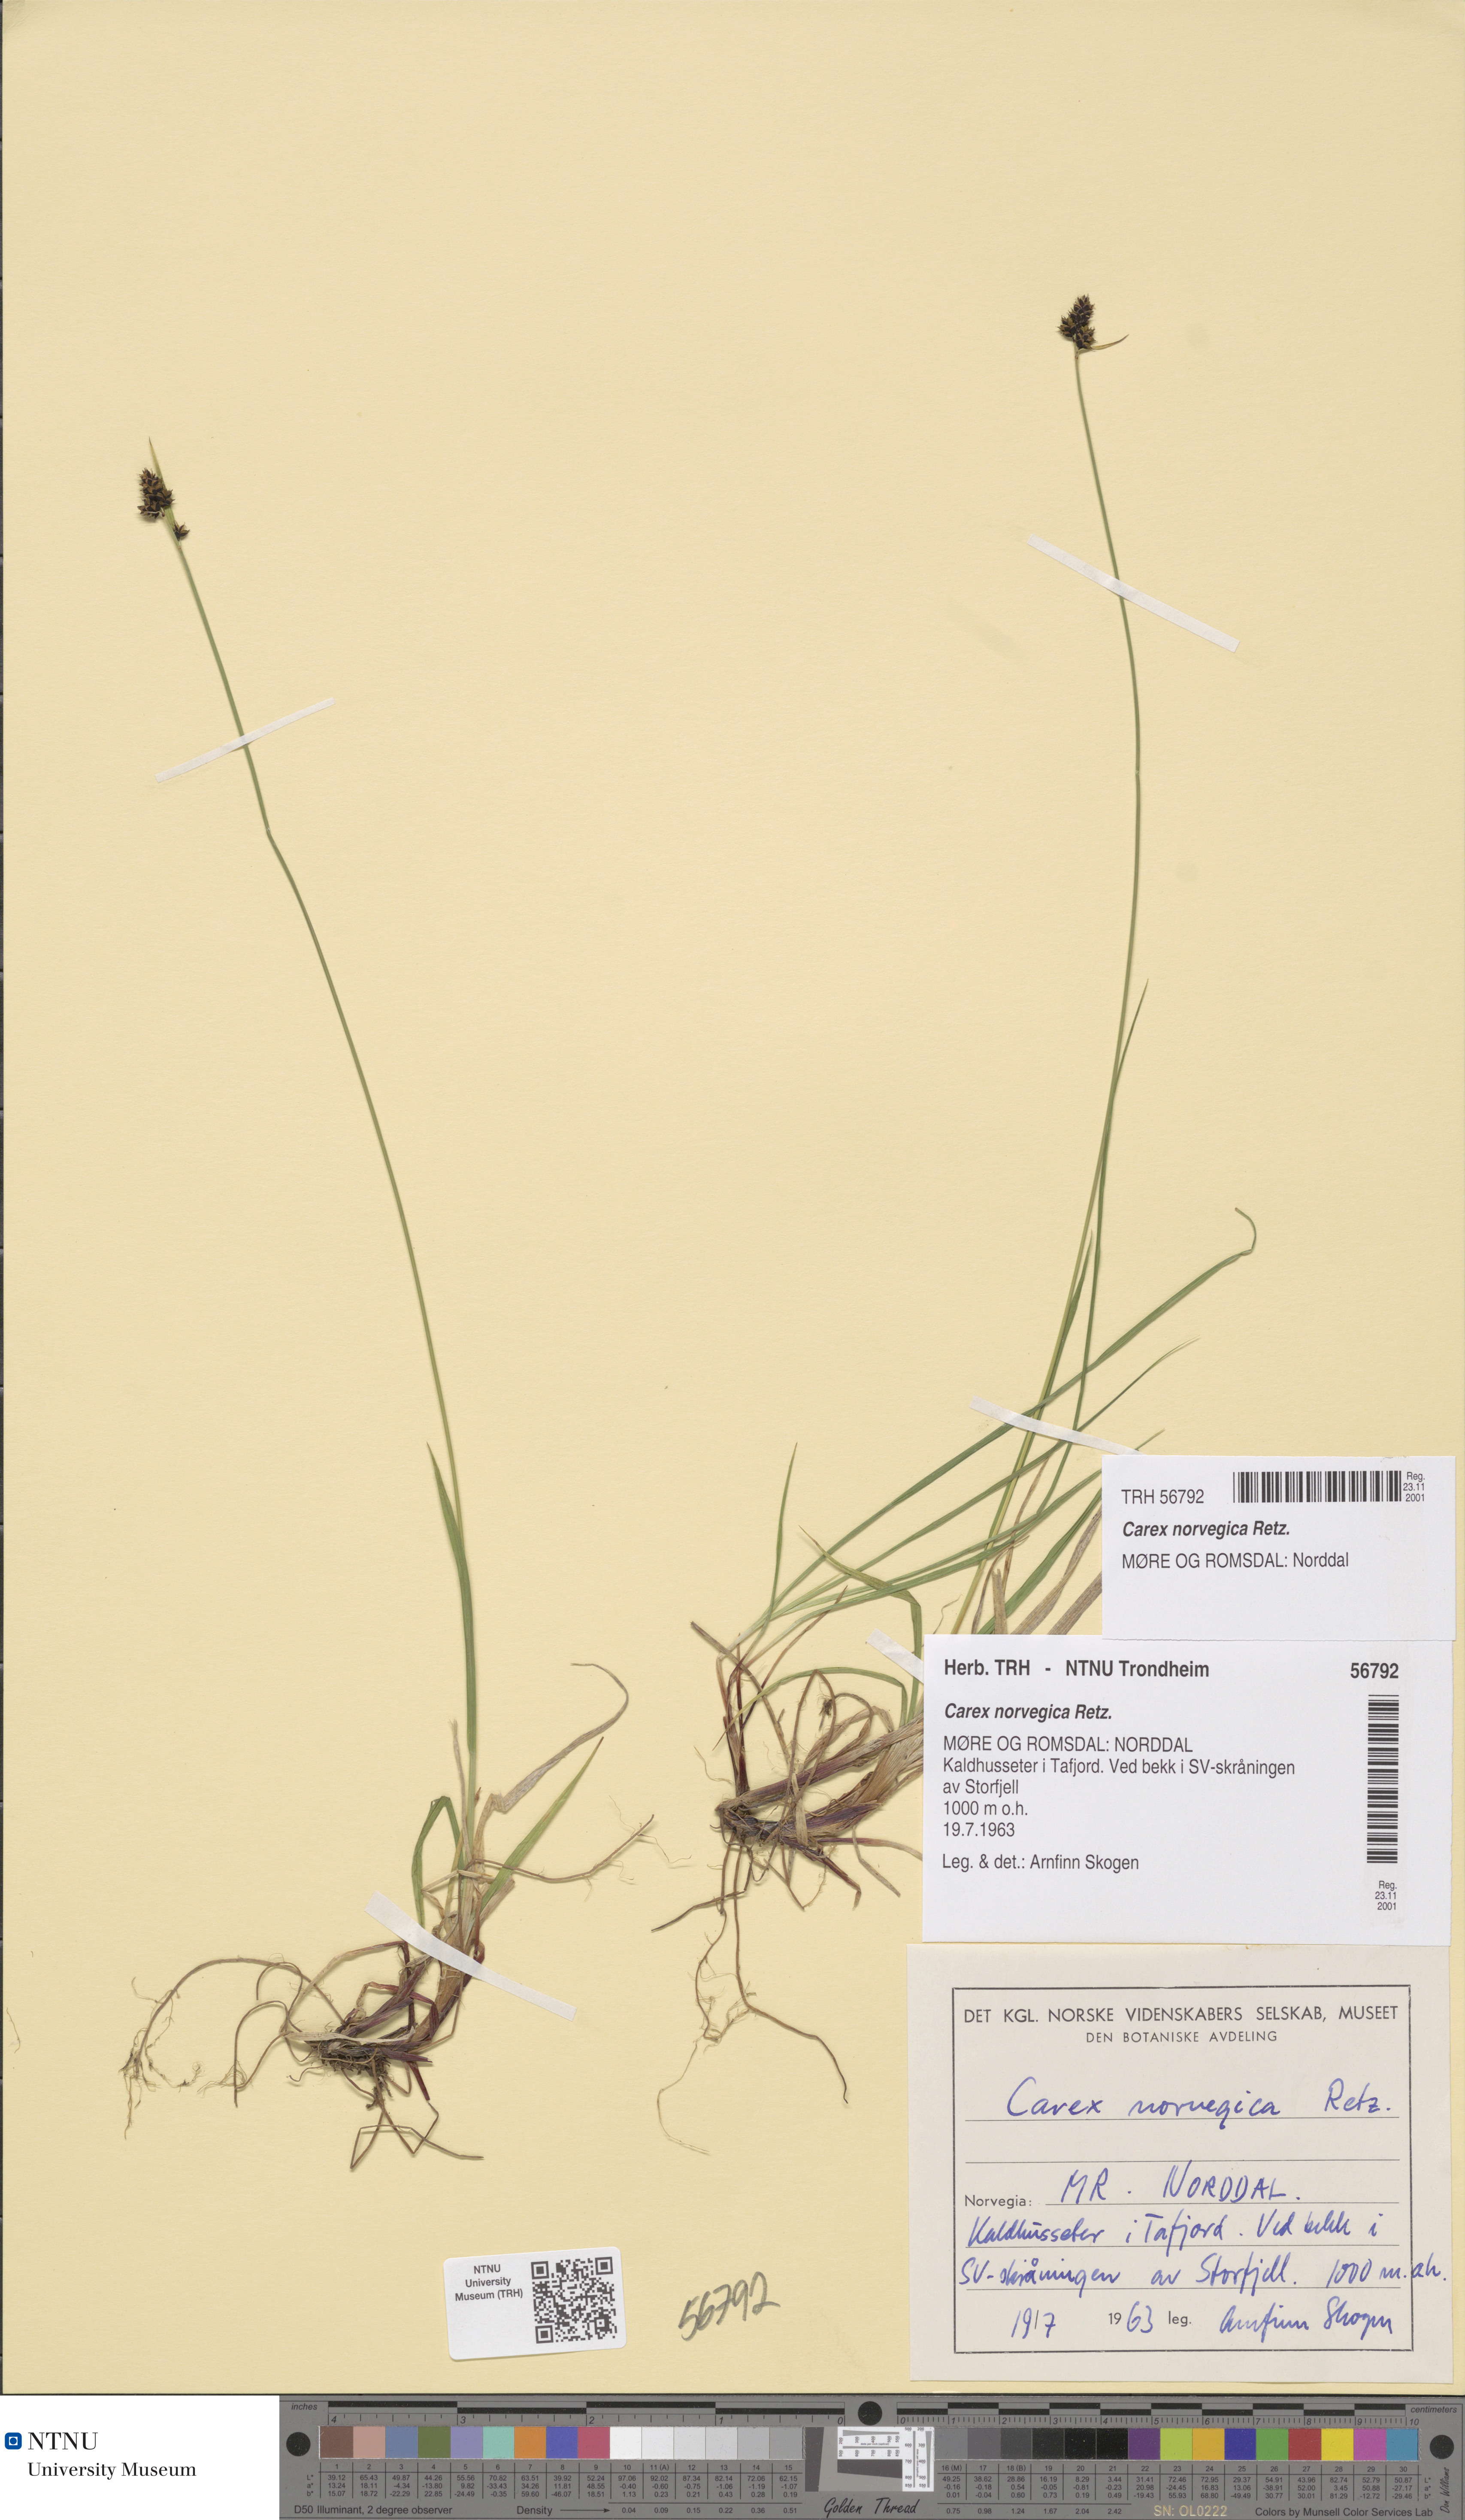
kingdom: Plantae
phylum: Tracheophyta
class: Liliopsida
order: Poales
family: Cyperaceae
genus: Carex
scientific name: Carex norvegica
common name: Close-headed alpine-sedge
